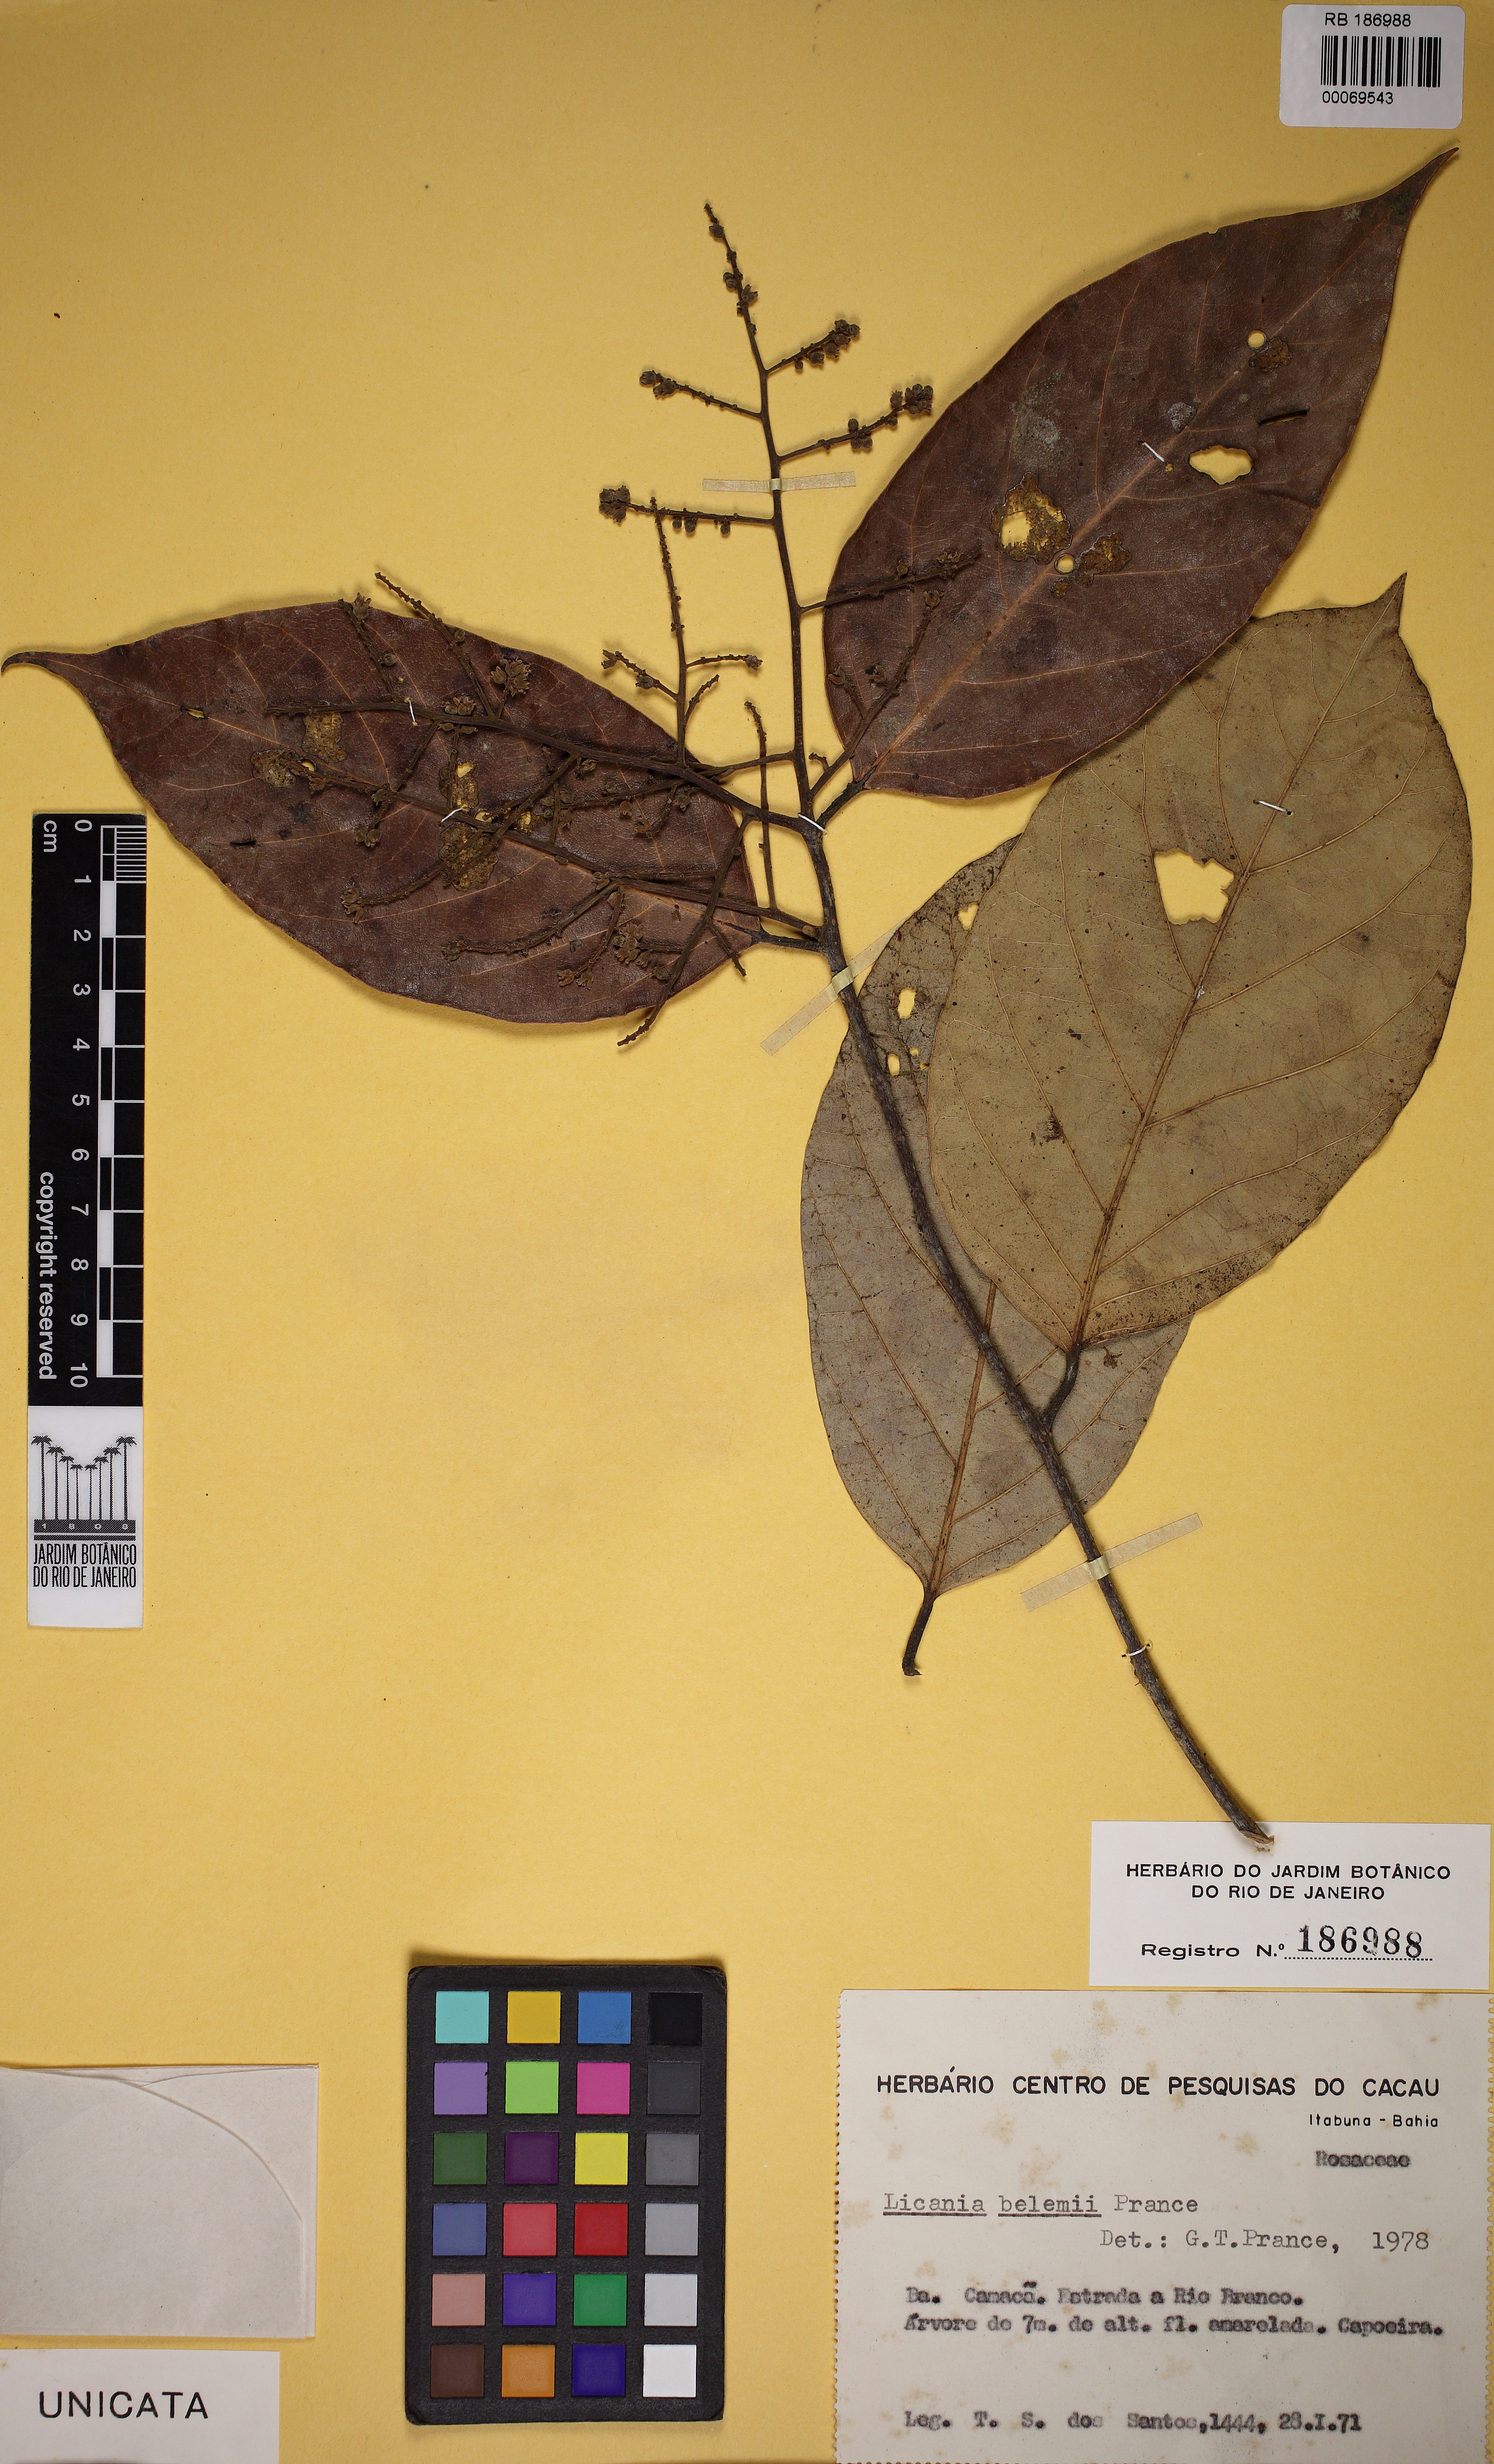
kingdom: Plantae
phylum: Tracheophyta
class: Magnoliopsida
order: Malpighiales
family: Chrysobalanaceae
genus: Licania
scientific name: Licania belemii
